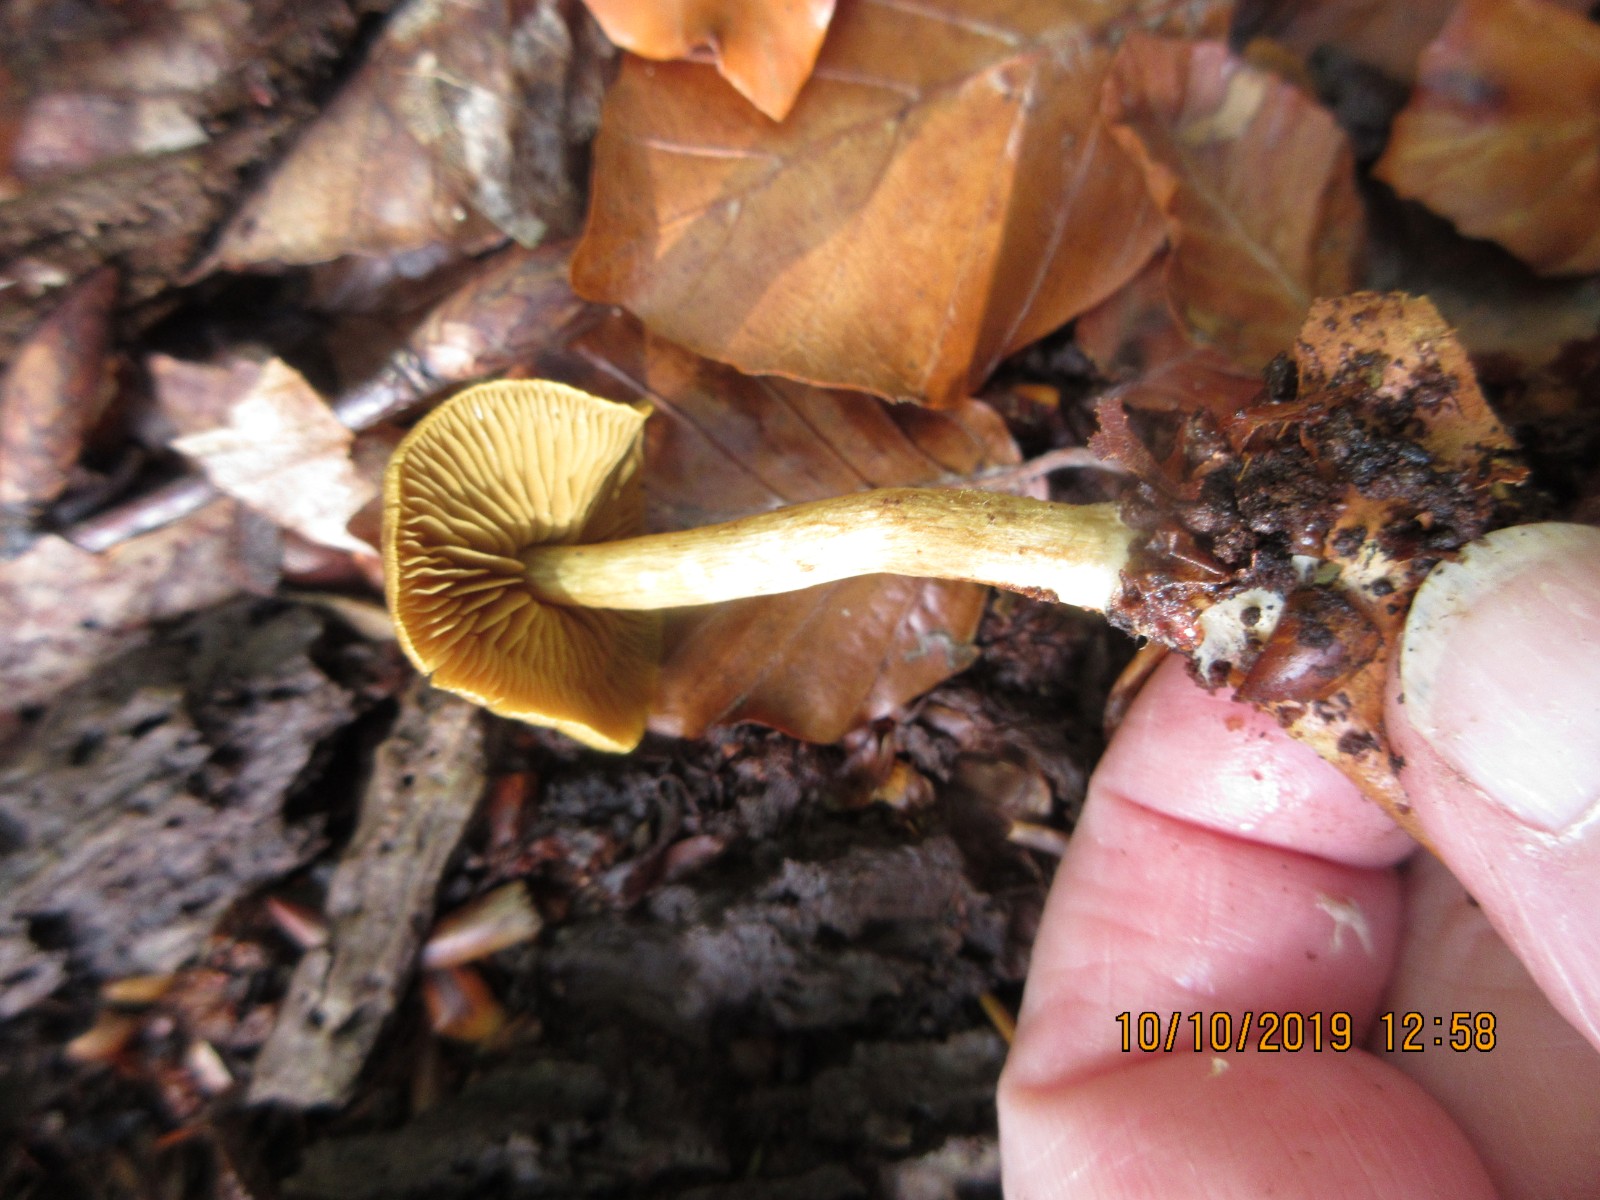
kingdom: Fungi
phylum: Basidiomycota
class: Agaricomycetes
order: Agaricales
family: Tricholomataceae
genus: Tricholoma
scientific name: Tricholoma sulphureum
